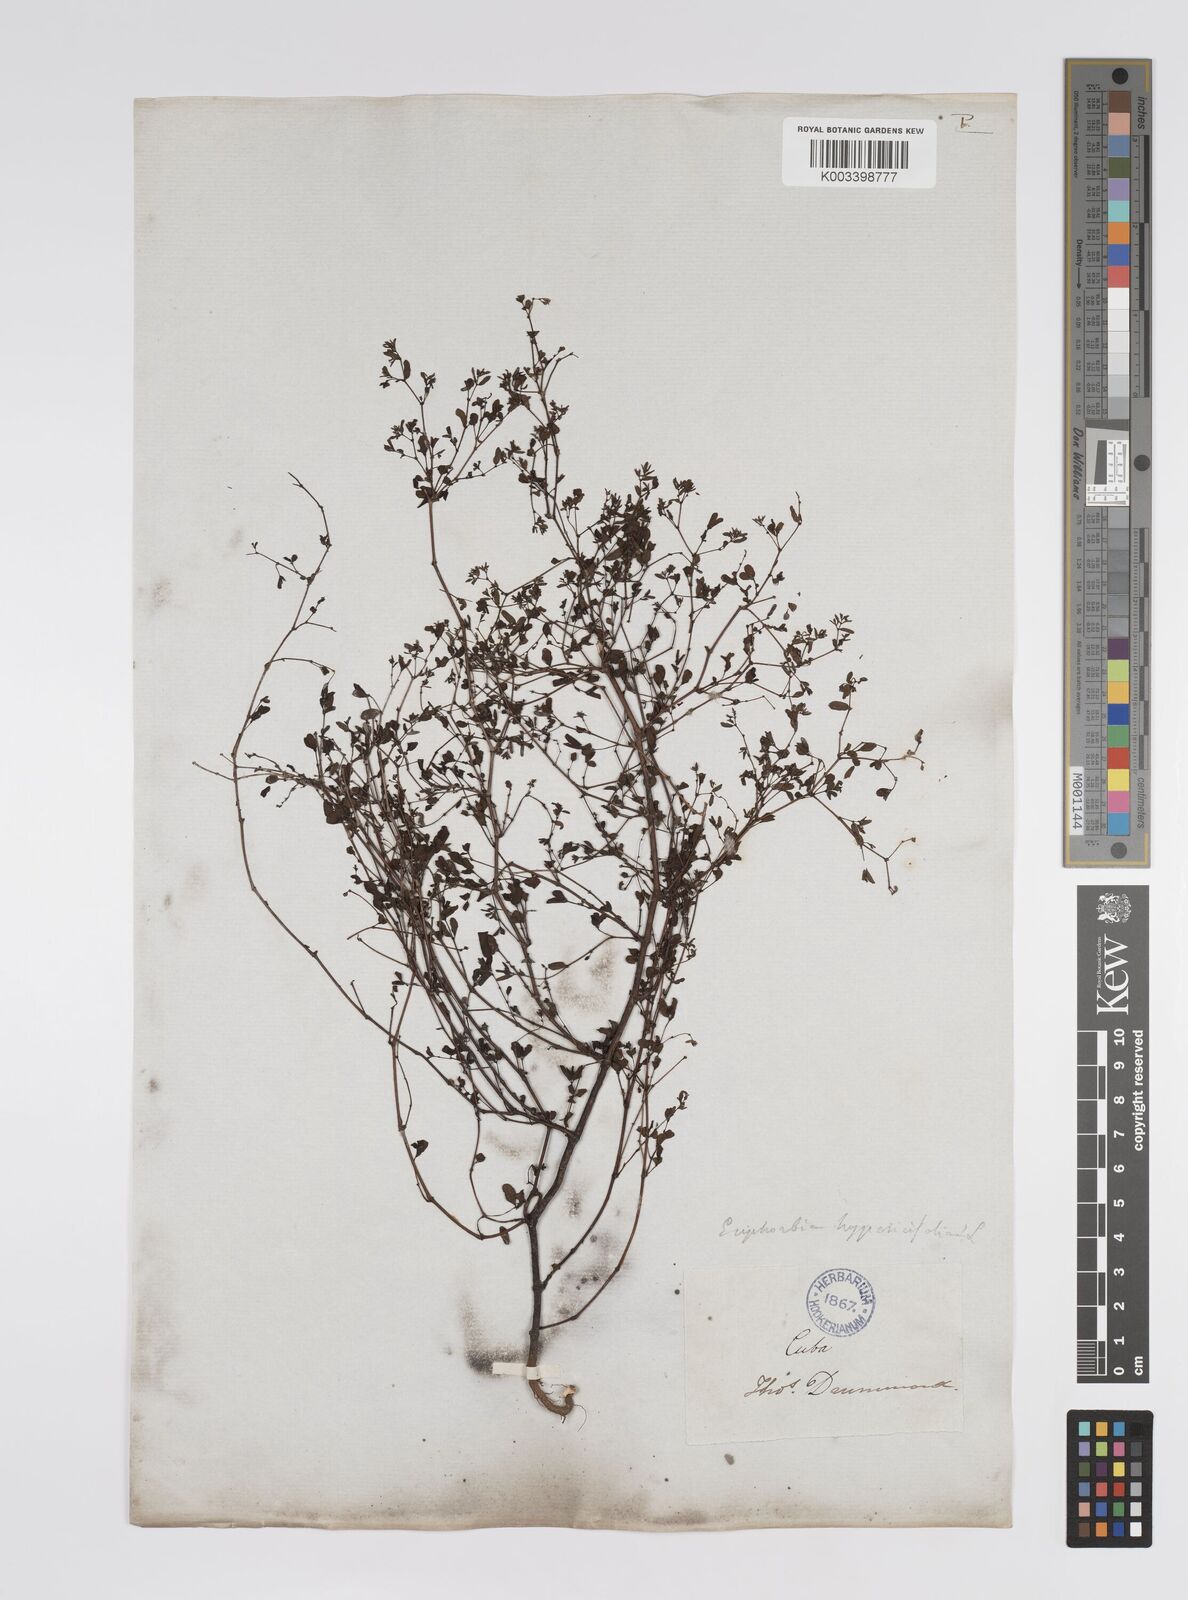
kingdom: Plantae
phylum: Tracheophyta
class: Magnoliopsida
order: Malpighiales
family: Euphorbiaceae
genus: Euphorbia
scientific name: Euphorbia hypericifolia
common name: Graceful sandmat
